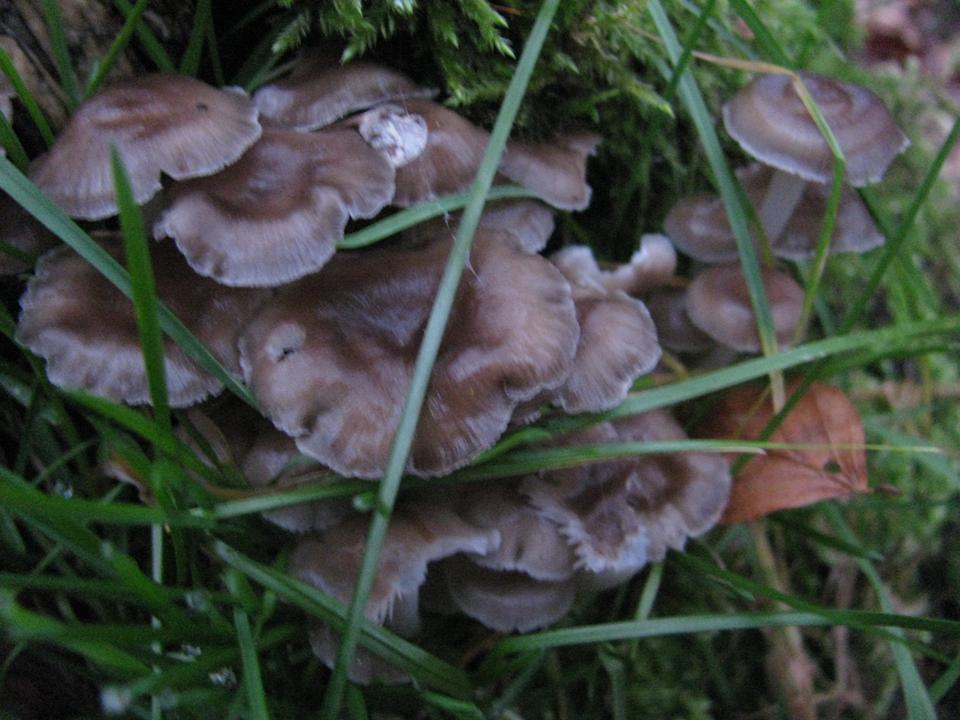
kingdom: Fungi
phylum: Basidiomycota
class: Agaricomycetes
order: Agaricales
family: Mycenaceae
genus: Mycena
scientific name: Mycena tintinnabulum
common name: vinter-huesvamp
